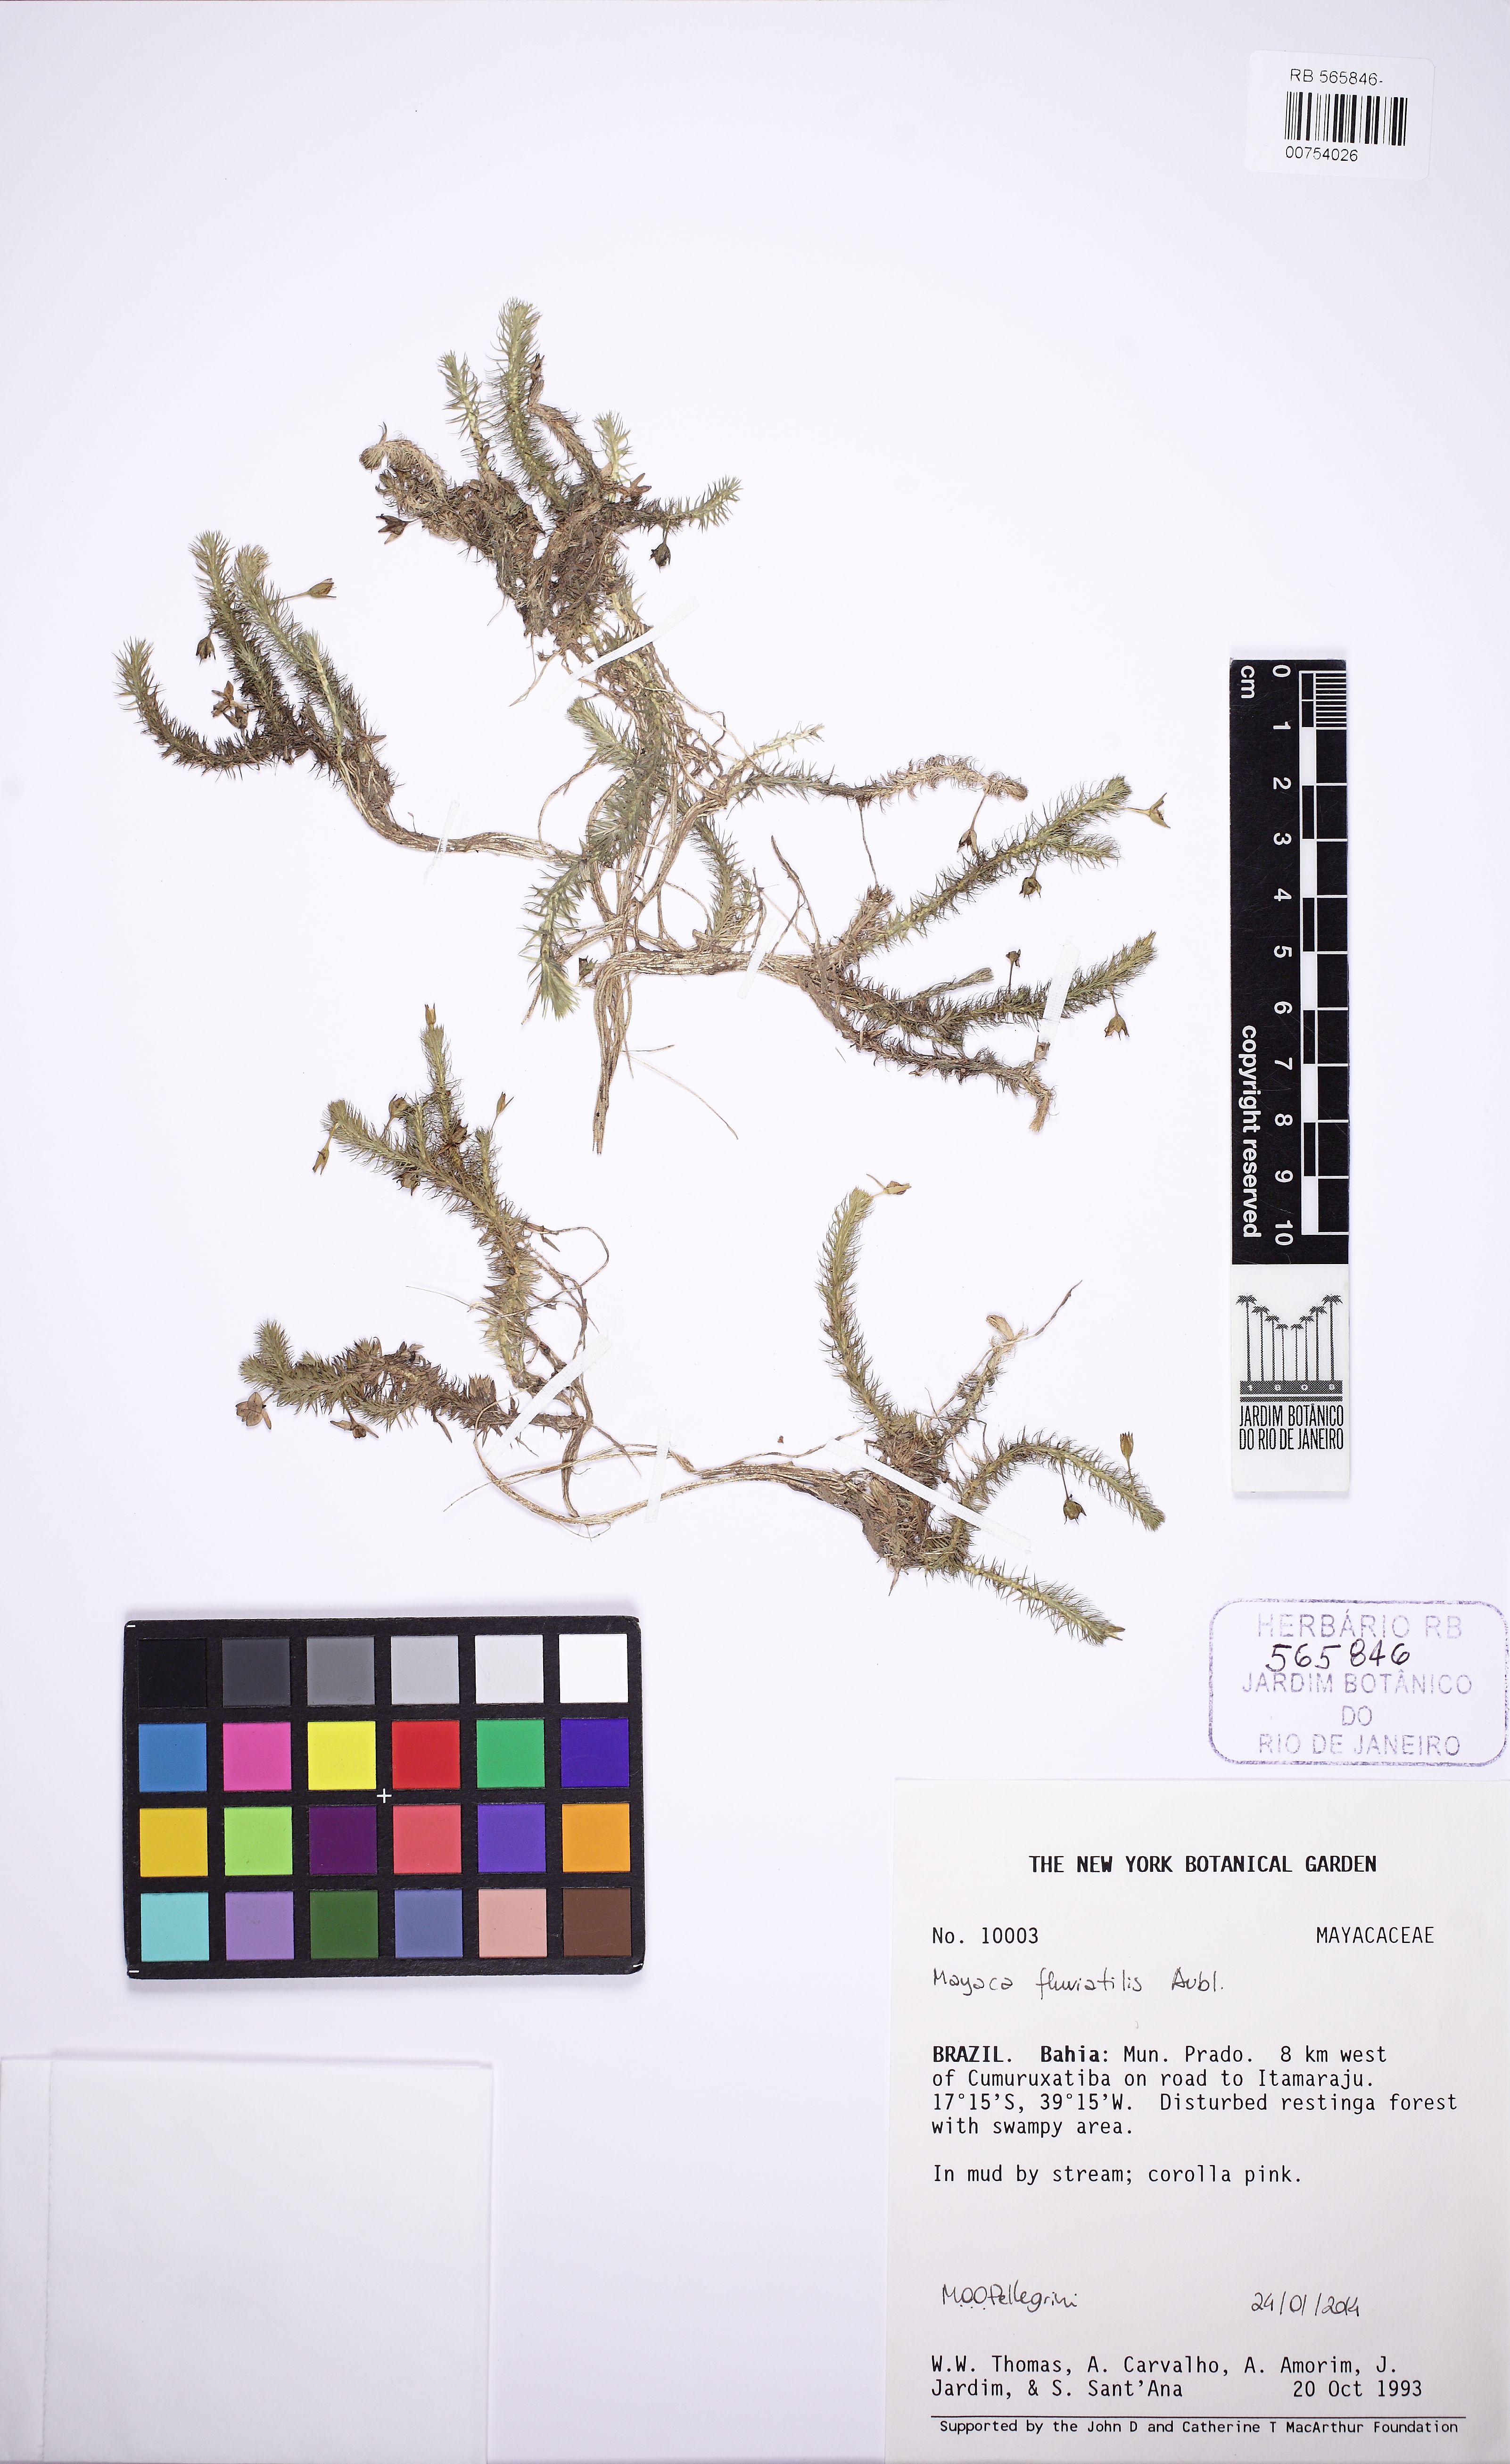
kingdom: Plantae
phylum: Tracheophyta
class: Liliopsida
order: Poales
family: Mayacaceae
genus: Mayaca
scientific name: Mayaca fluviatilis
